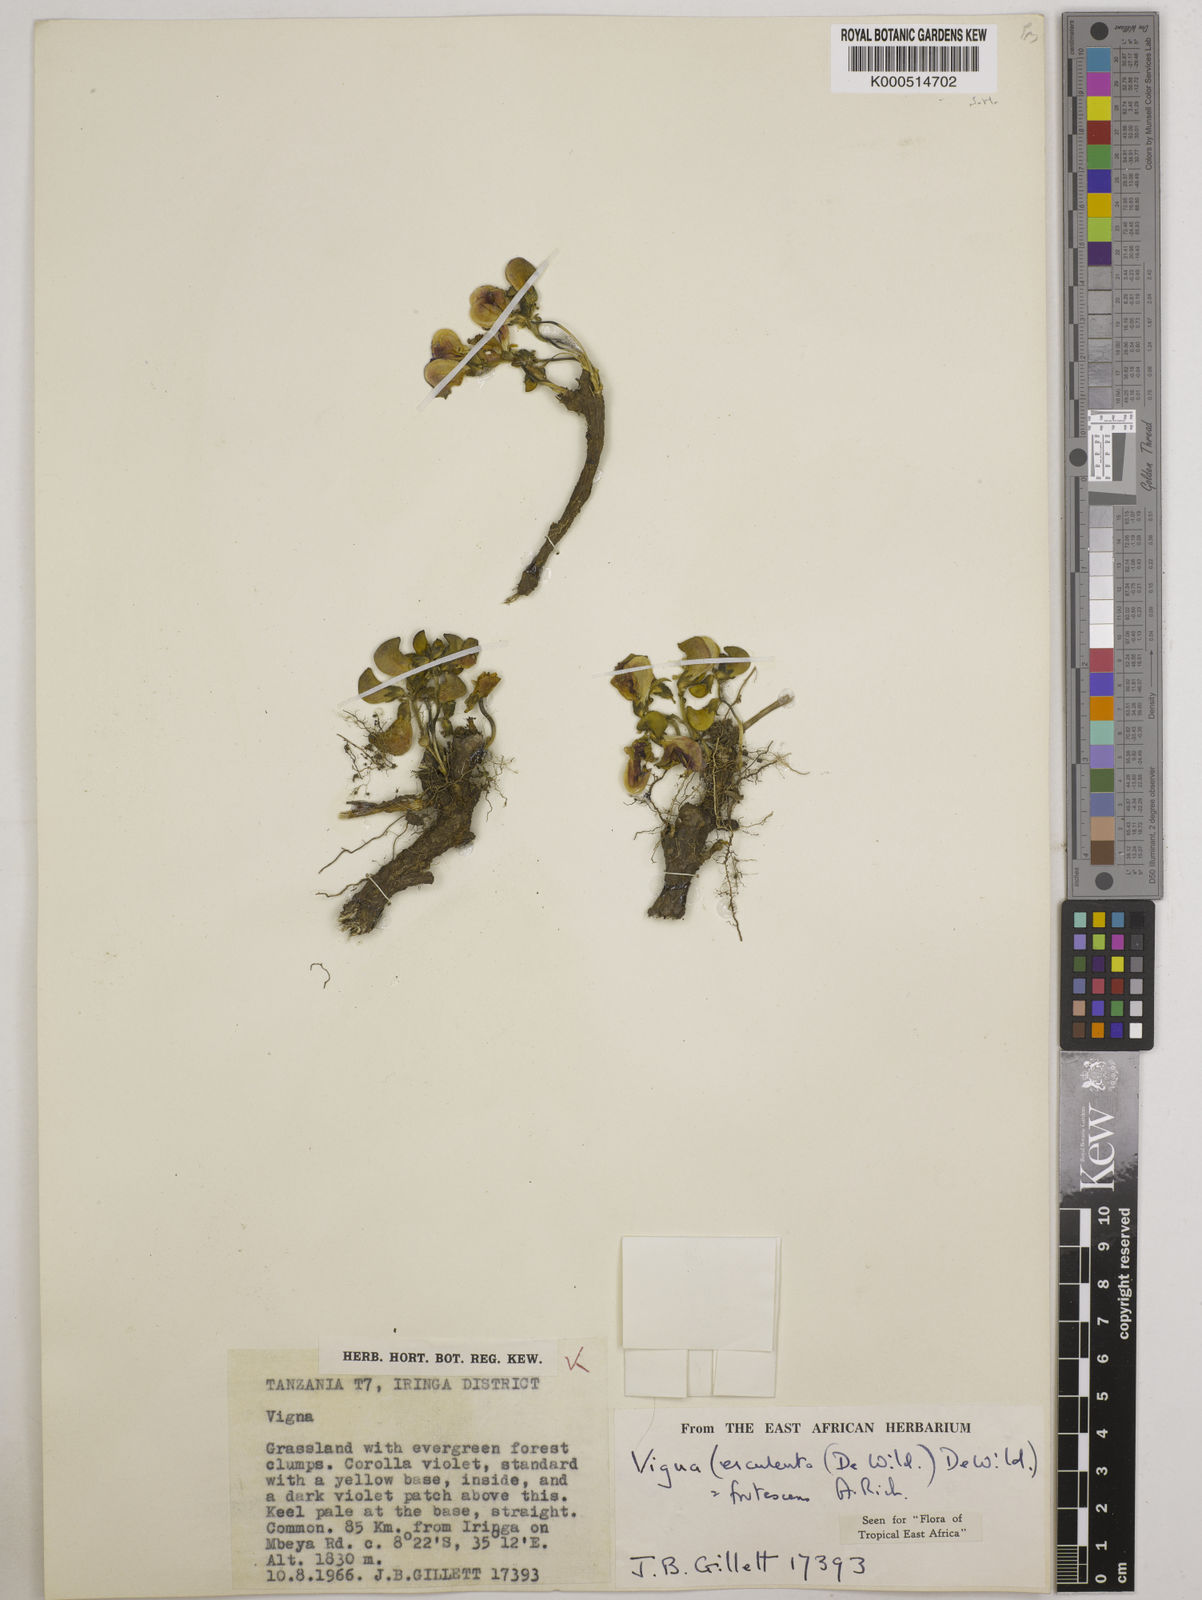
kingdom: Plantae
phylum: Tracheophyta
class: Magnoliopsida
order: Fabales
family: Fabaceae
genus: Vigna
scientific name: Vigna frutescens
